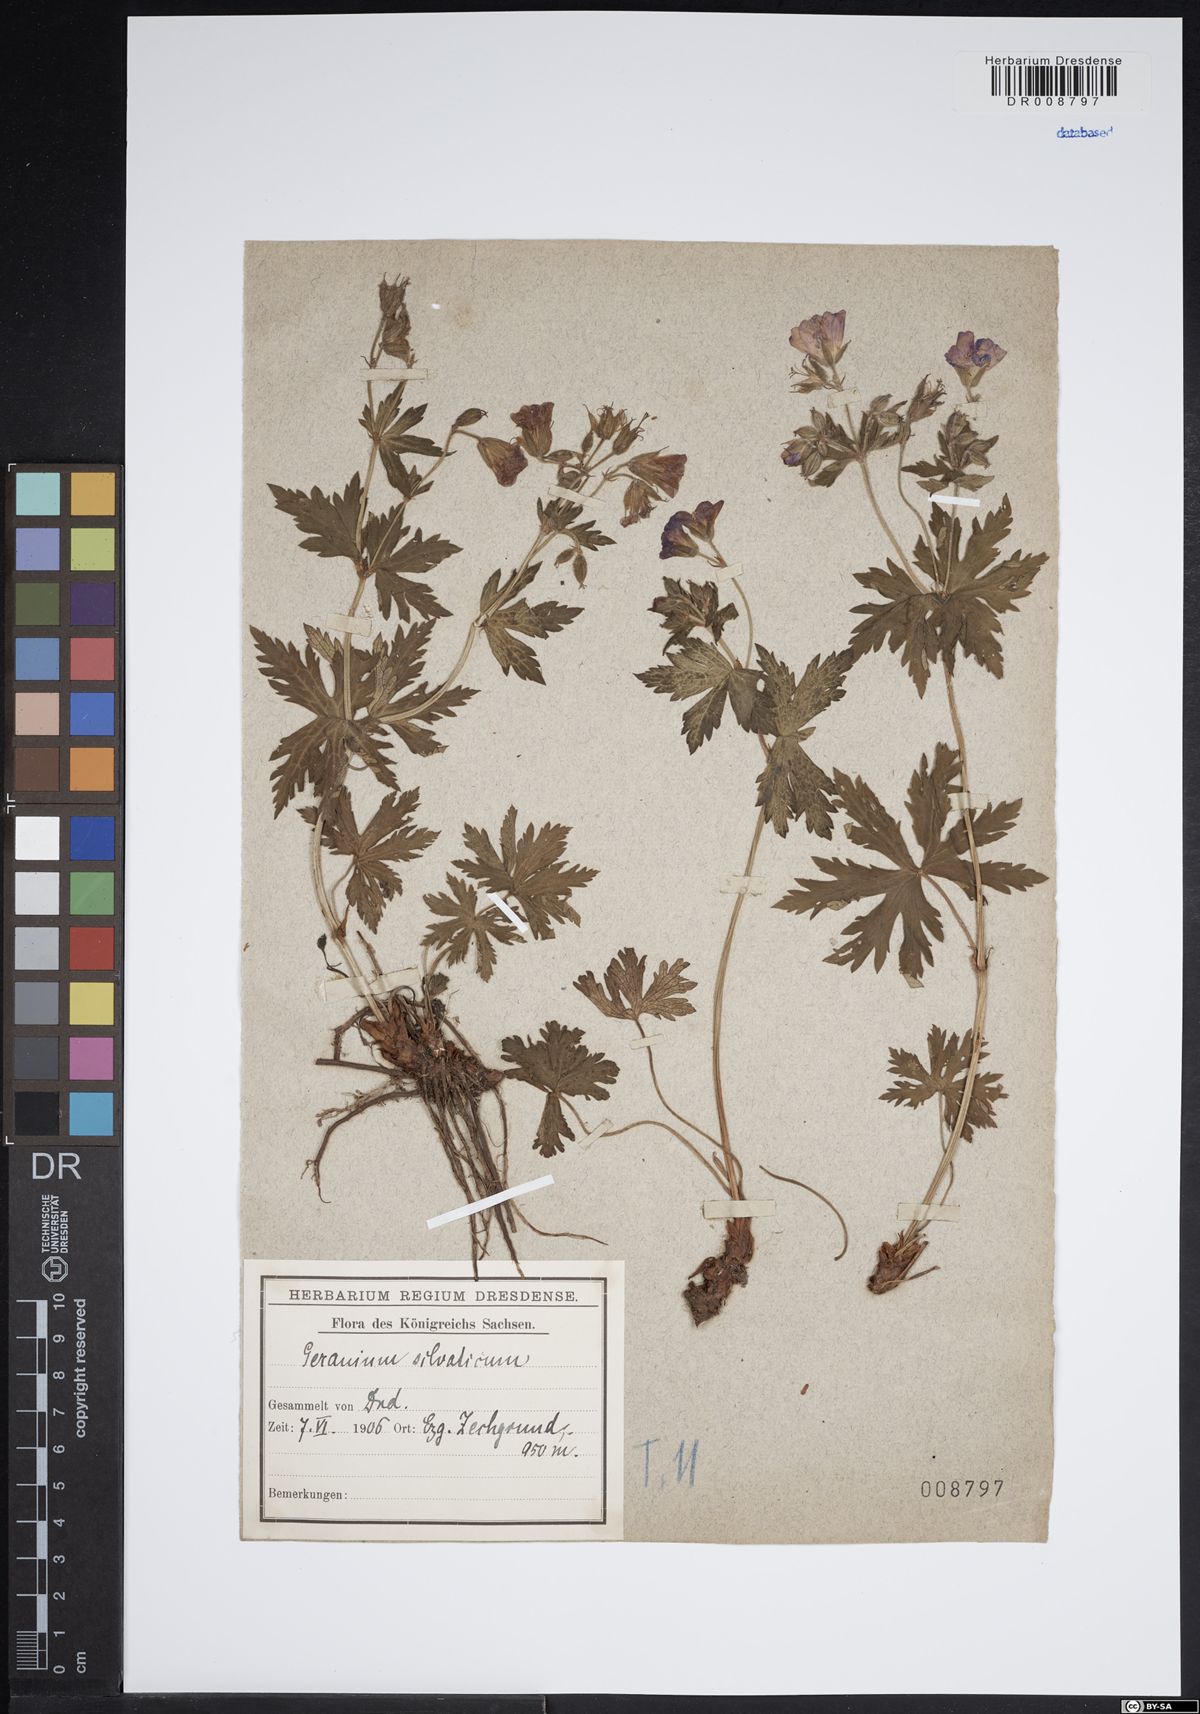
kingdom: Plantae
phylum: Tracheophyta
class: Magnoliopsida
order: Geraniales
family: Geraniaceae
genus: Geranium
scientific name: Geranium sylvaticum
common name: Wood crane's-bill
